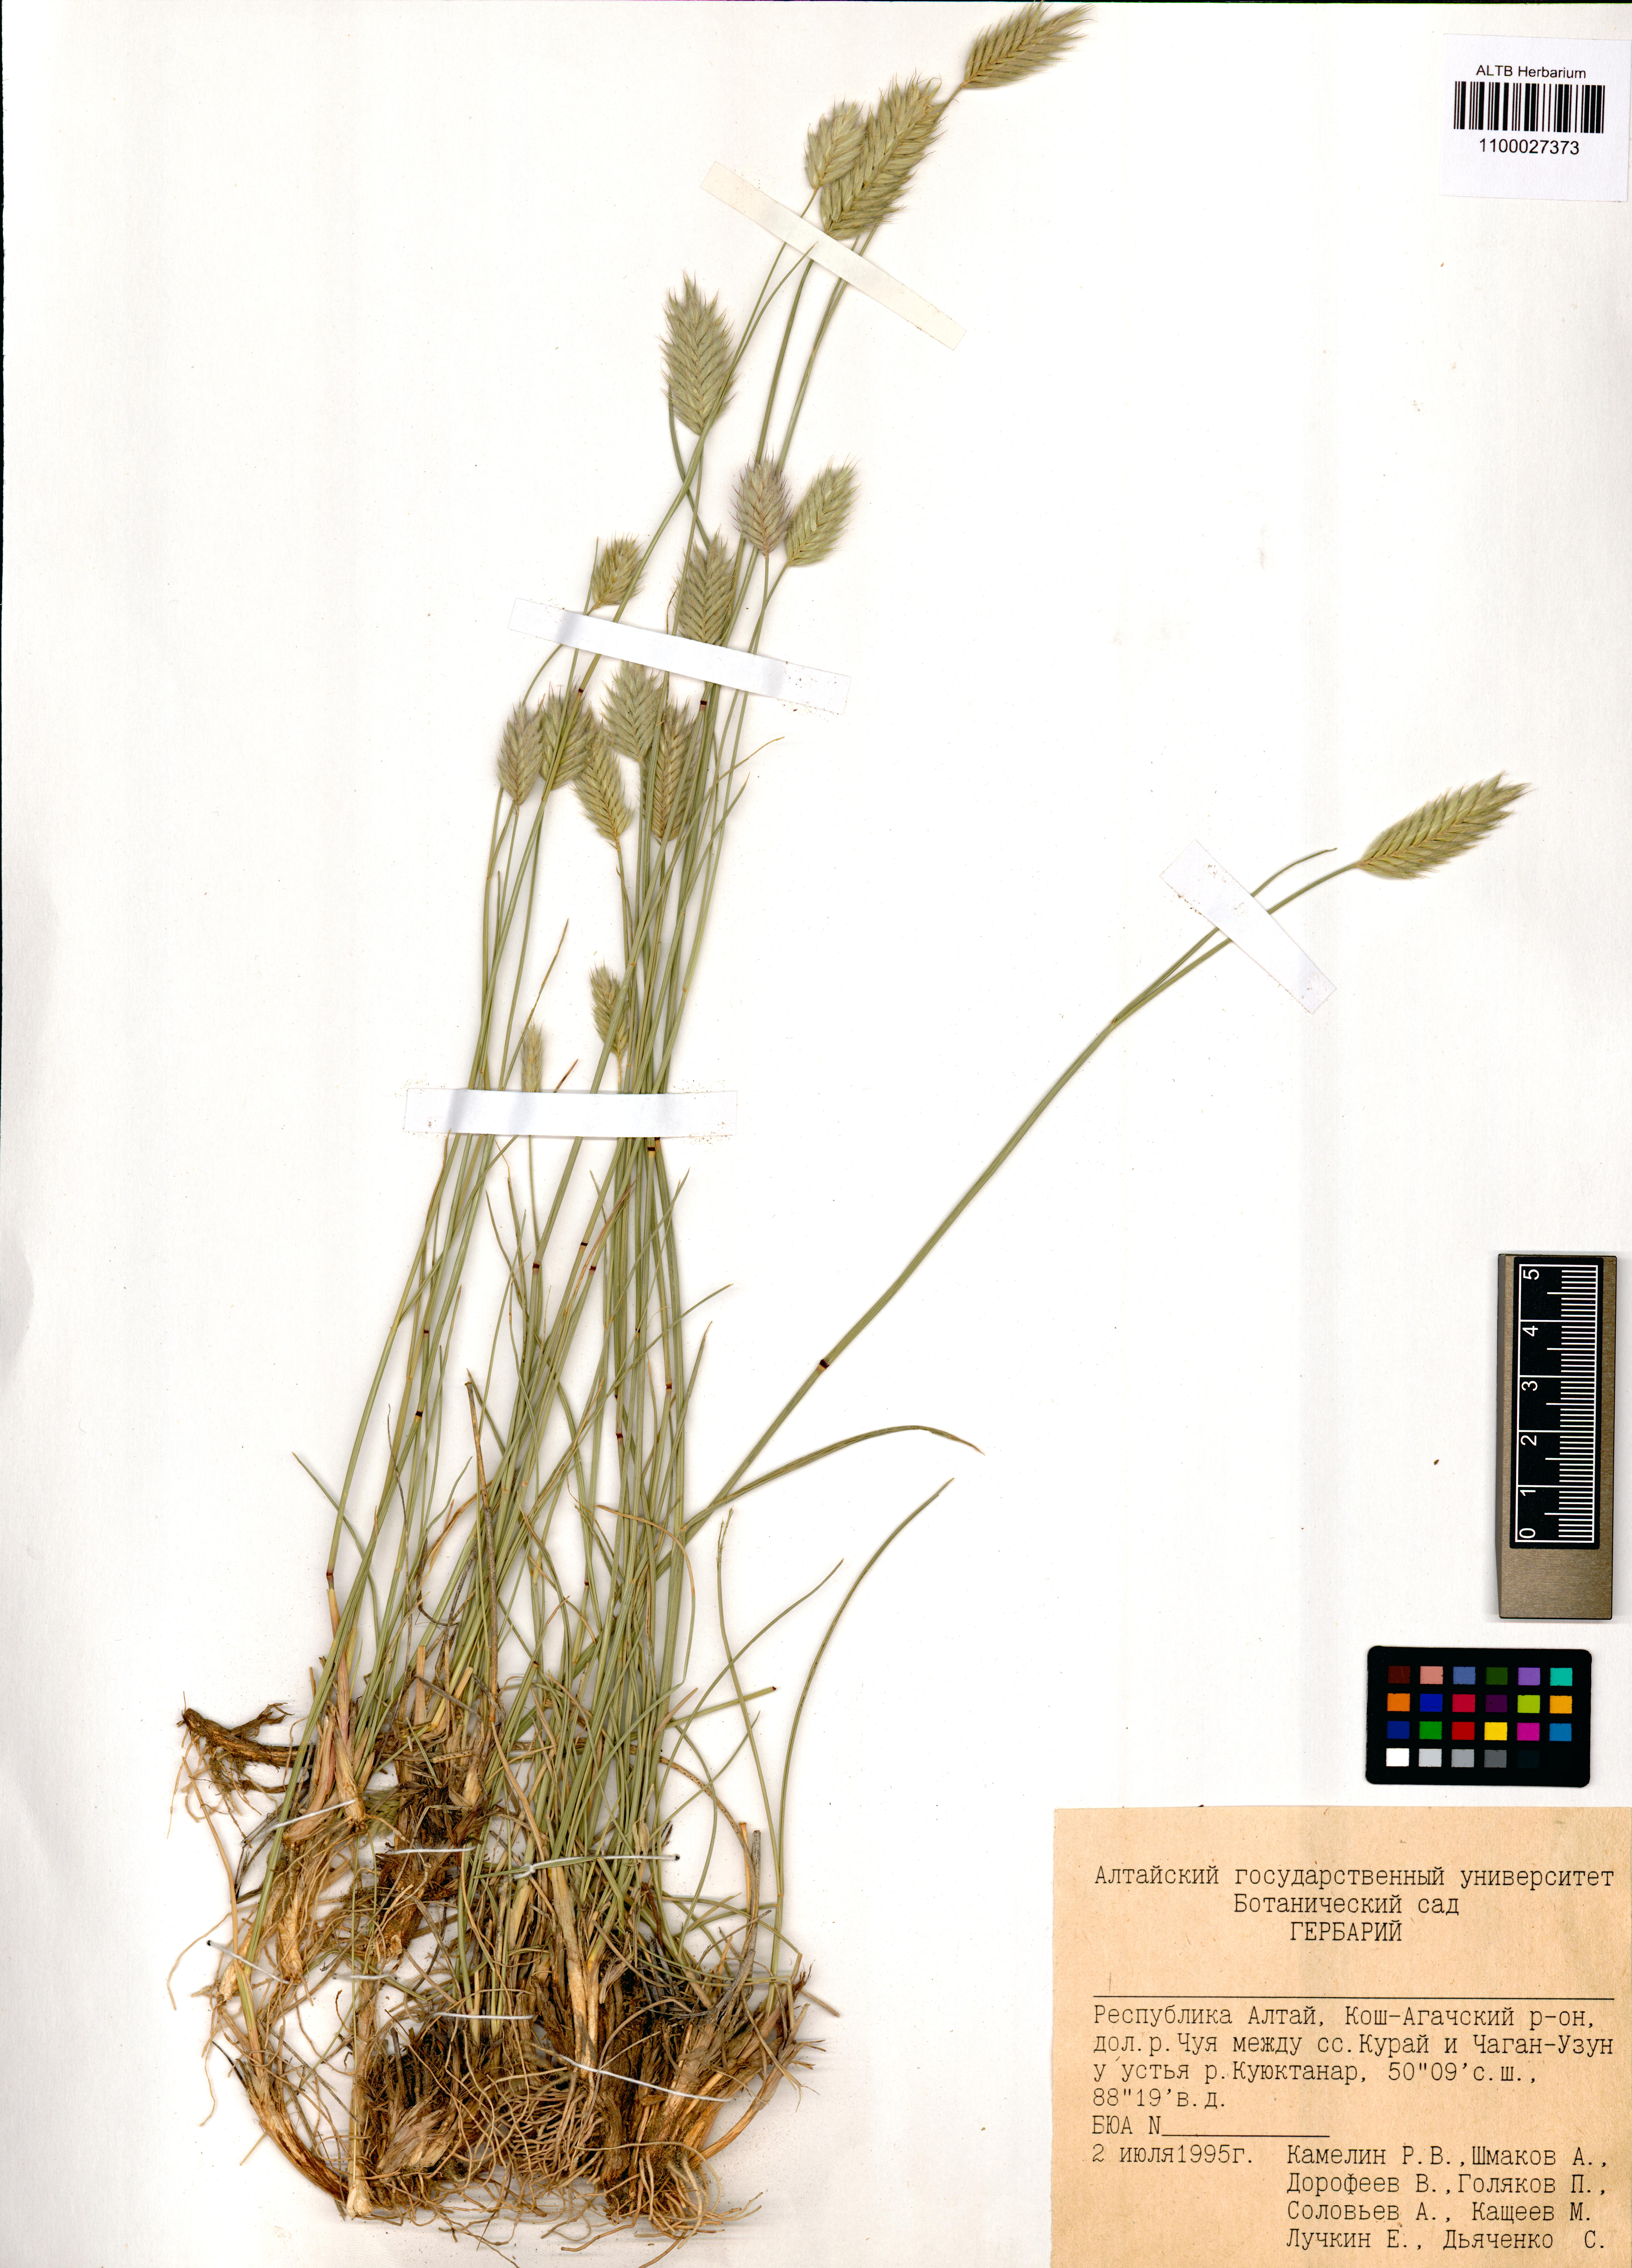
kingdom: Plantae
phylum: Tracheophyta
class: Liliopsida
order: Poales
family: Poaceae
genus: Agropyron
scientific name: Agropyron cristatum
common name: Crested wheatgrass
